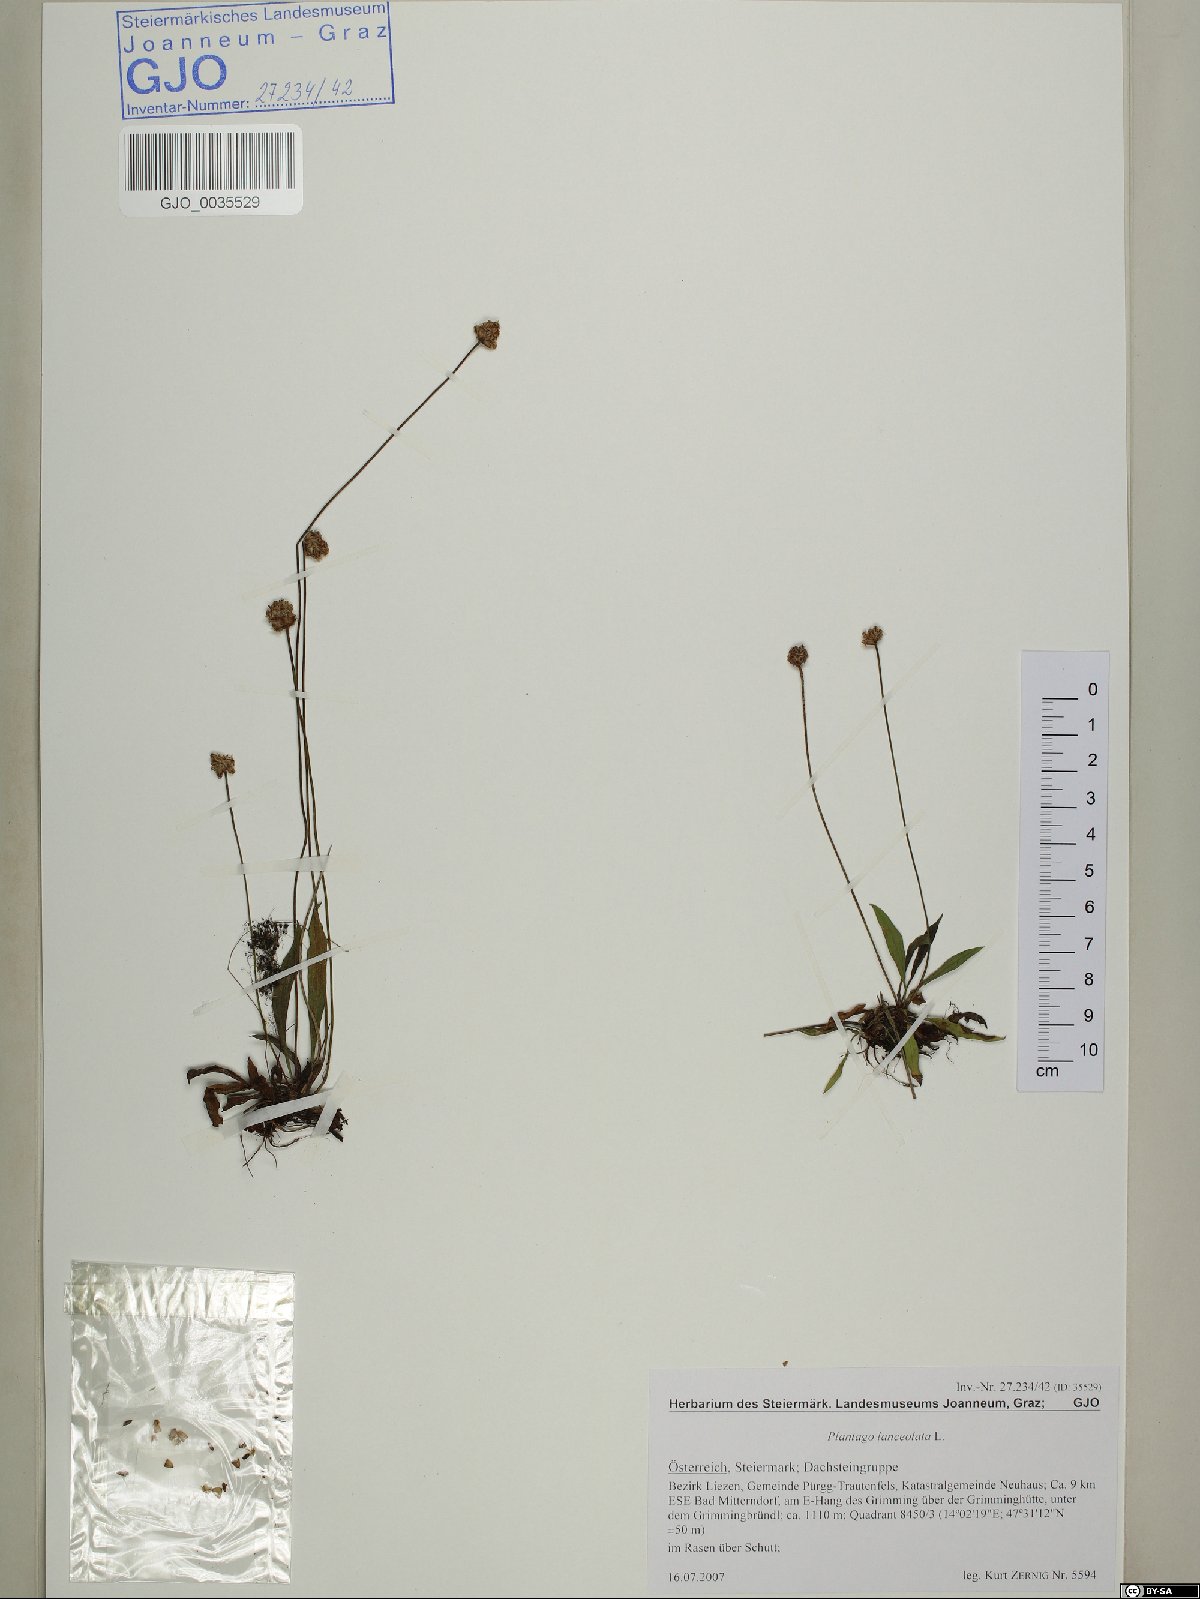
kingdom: Plantae
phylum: Tracheophyta
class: Magnoliopsida
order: Lamiales
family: Plantaginaceae
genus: Plantago
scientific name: Plantago lanceolata
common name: Ribwort plantain
